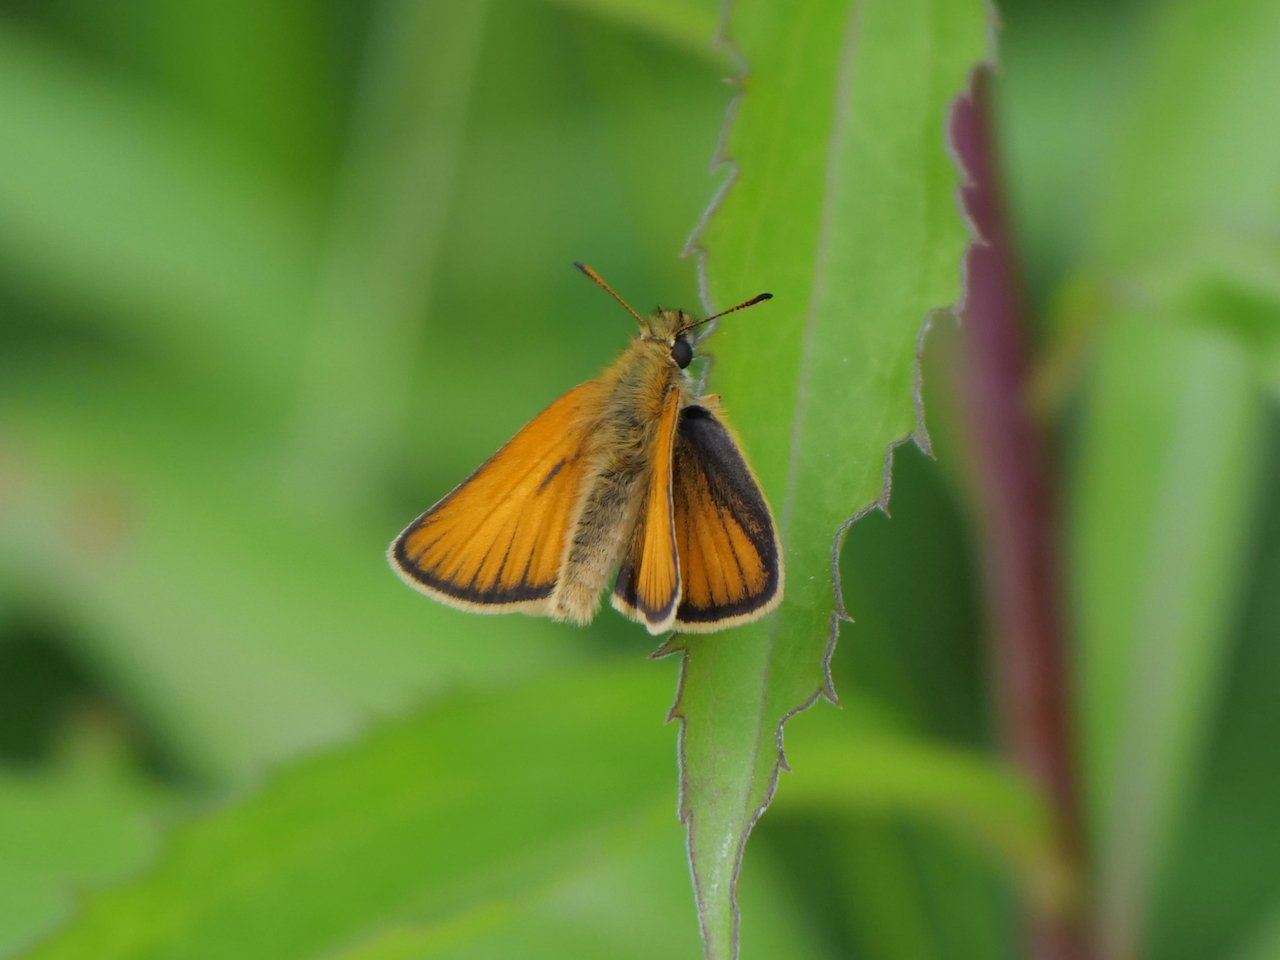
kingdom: Animalia
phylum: Arthropoda
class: Insecta
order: Lepidoptera
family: Hesperiidae
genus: Thymelicus
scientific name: Thymelicus lineola
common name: European Skipper
